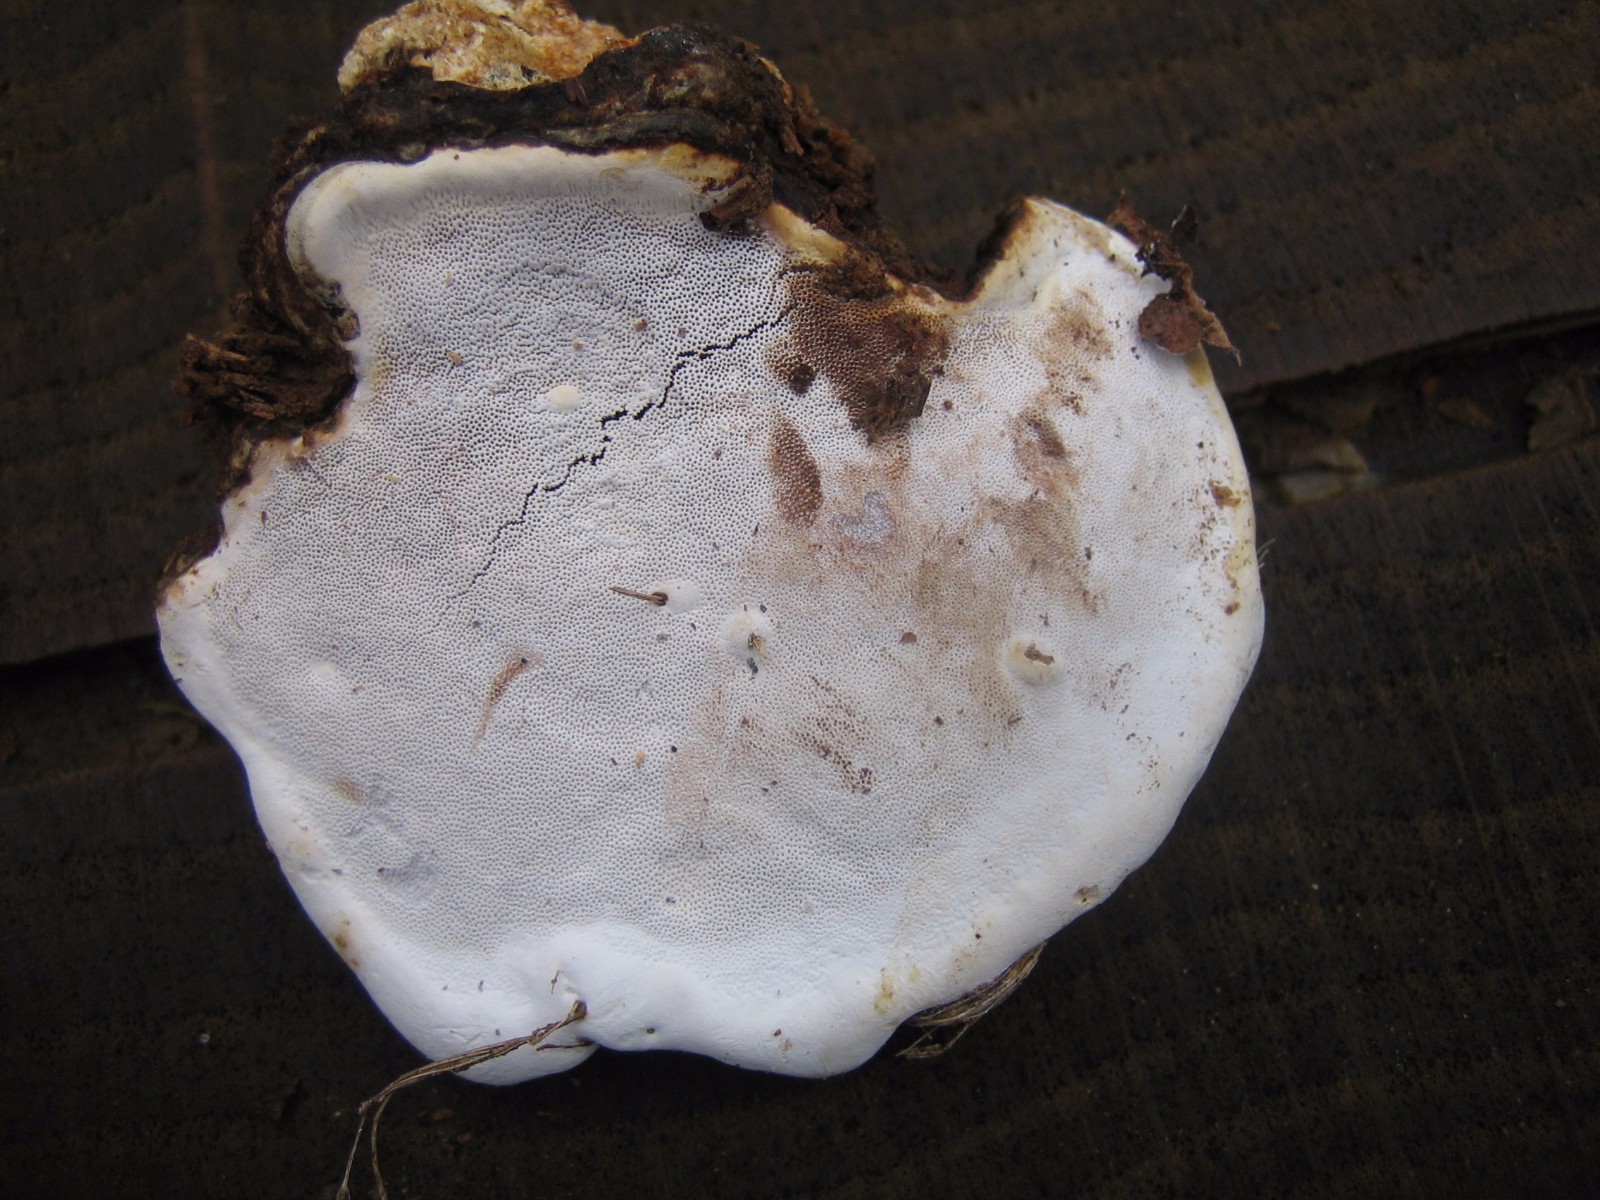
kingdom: Fungi
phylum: Basidiomycota
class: Agaricomycetes
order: Polyporales
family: Polyporaceae
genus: Ganoderma
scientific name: Ganoderma applanatum
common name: flad lakporesvamp
